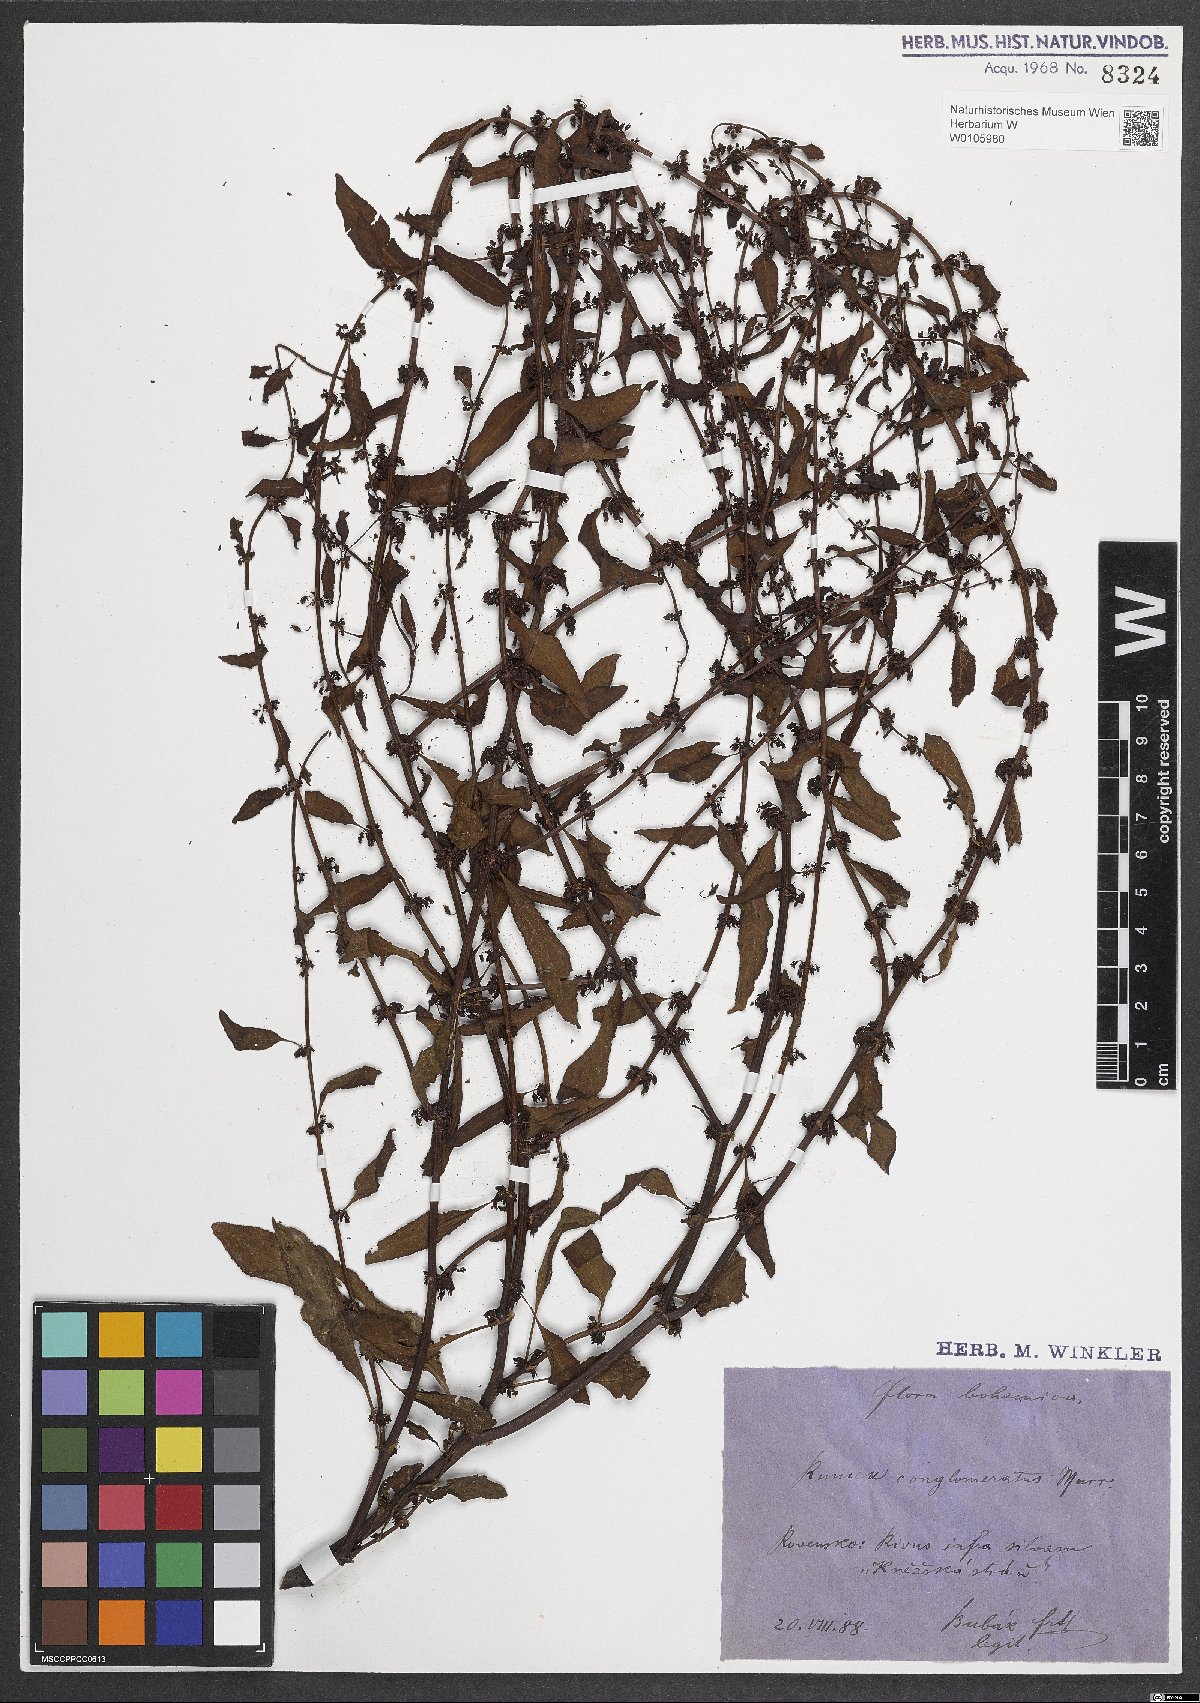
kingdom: Plantae
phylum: Tracheophyta
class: Magnoliopsida
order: Caryophyllales
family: Polygonaceae
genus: Rumex
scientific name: Rumex conglomeratus
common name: Clustered dock
